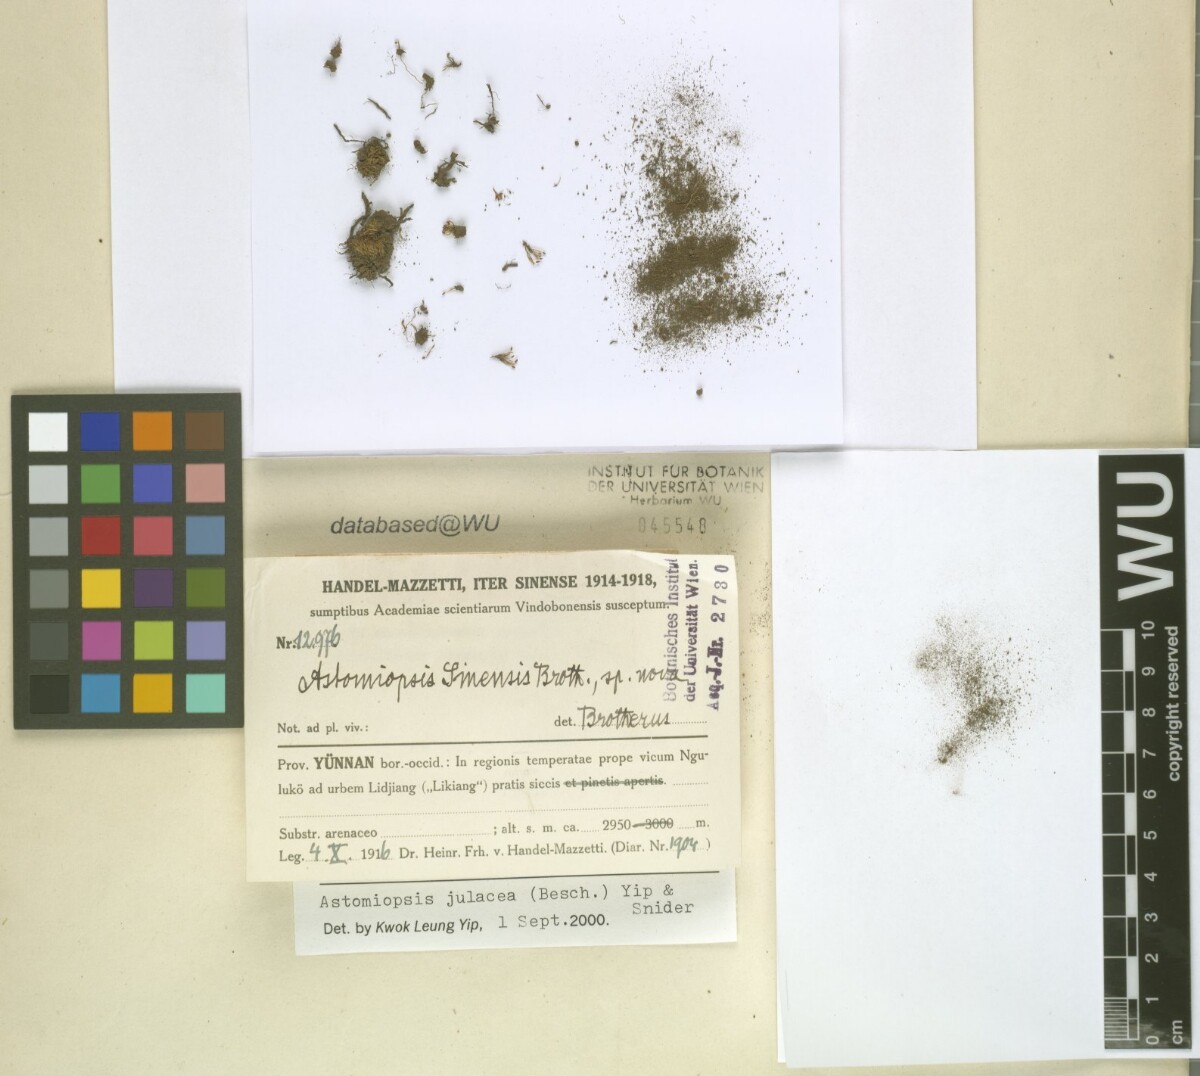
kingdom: Plantae
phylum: Bryophyta
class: Bryopsida
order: Dicranales
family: Ditrichaceae
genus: Astomiopsis
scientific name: Astomiopsis julacea
